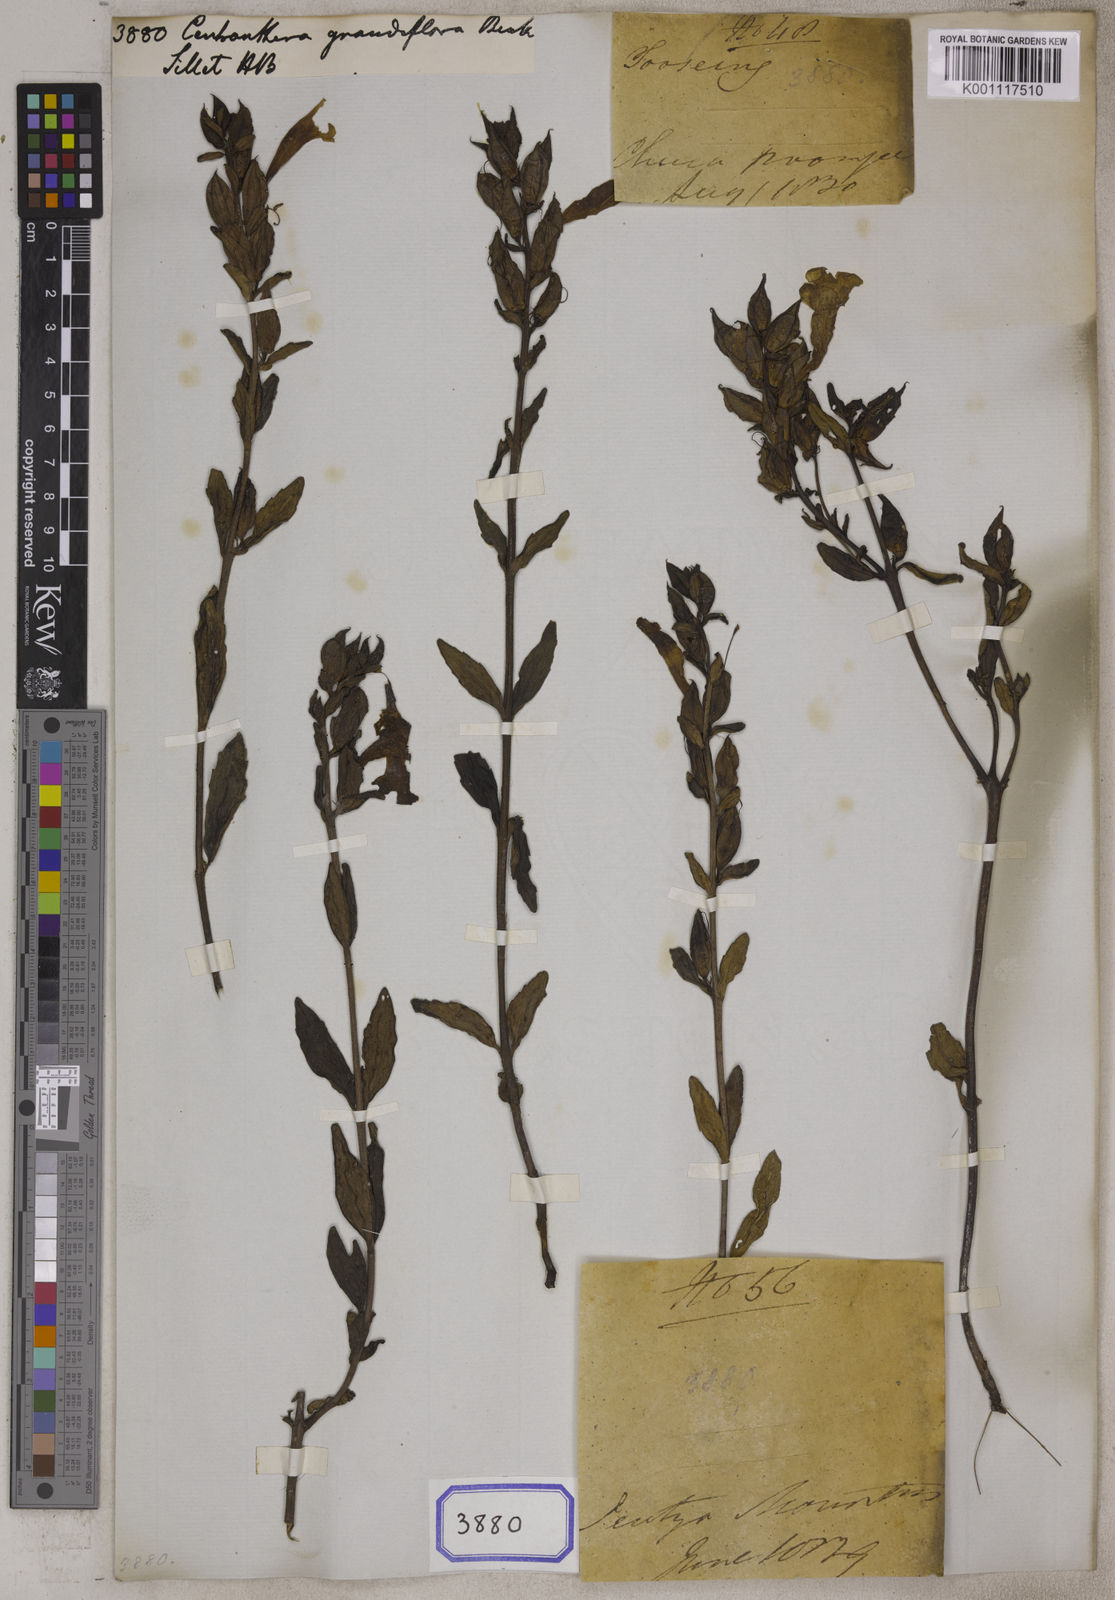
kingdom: Plantae
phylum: Tracheophyta
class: Magnoliopsida
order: Lamiales
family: Orobanchaceae
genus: Centranthera
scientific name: Centranthera grandiflora
